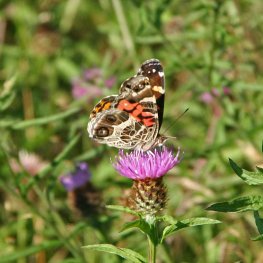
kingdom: Animalia
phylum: Arthropoda
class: Insecta
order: Lepidoptera
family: Nymphalidae
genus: Vanessa
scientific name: Vanessa virginiensis
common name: American Lady
